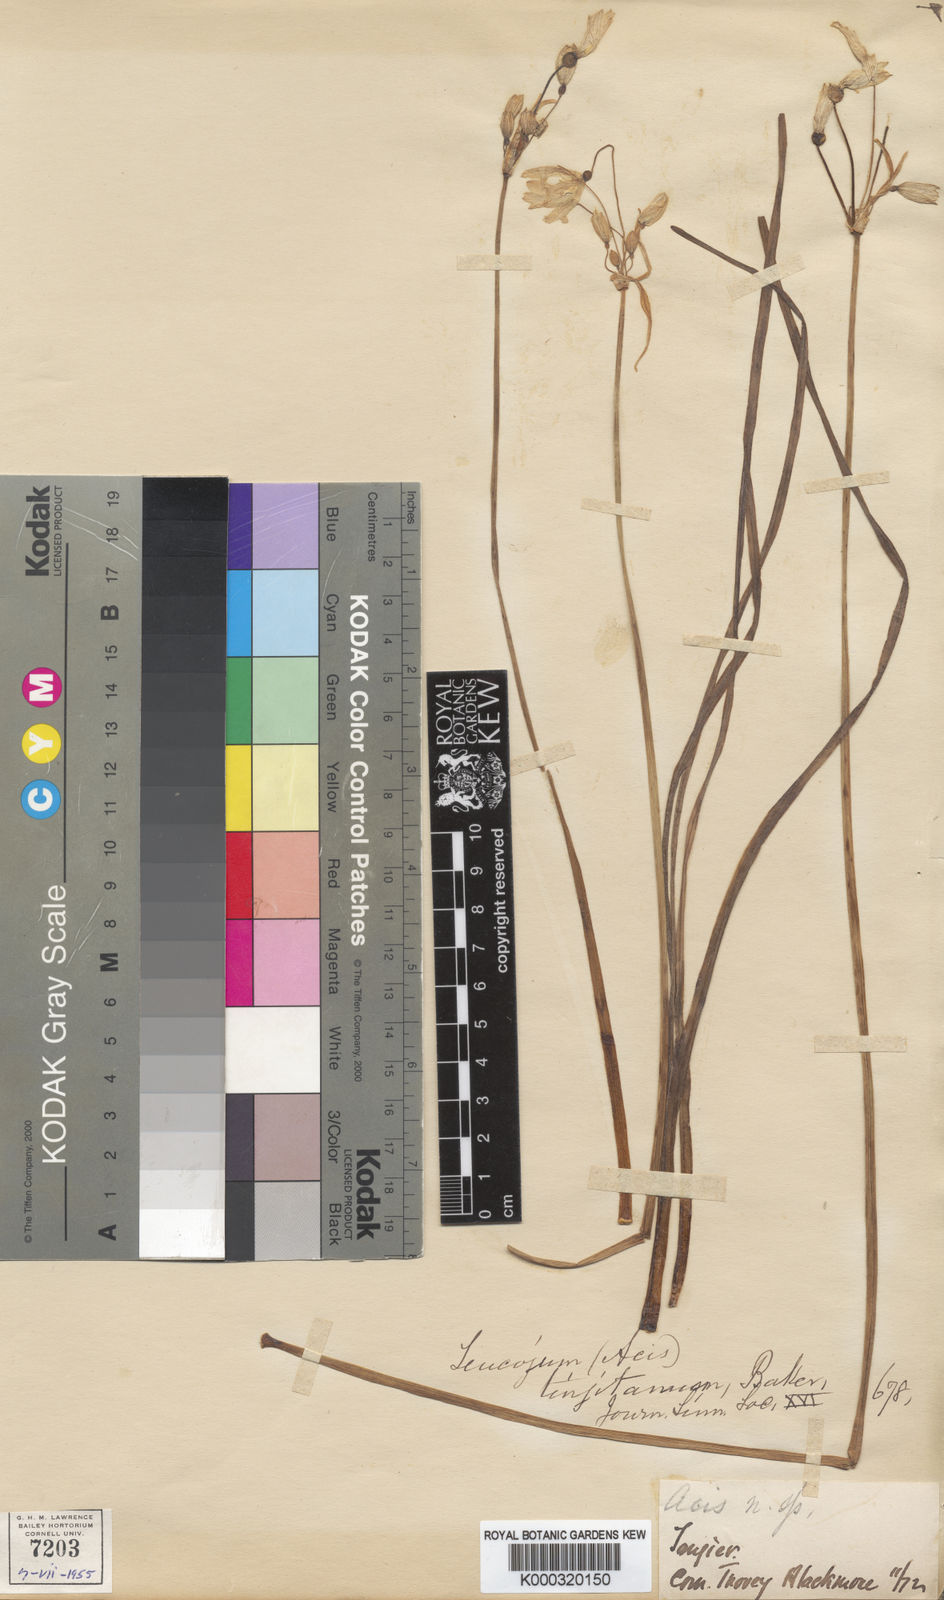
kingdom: Plantae
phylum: Tracheophyta
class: Liliopsida
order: Asparagales
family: Amaryllidaceae
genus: Acis
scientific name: Acis tingitana
